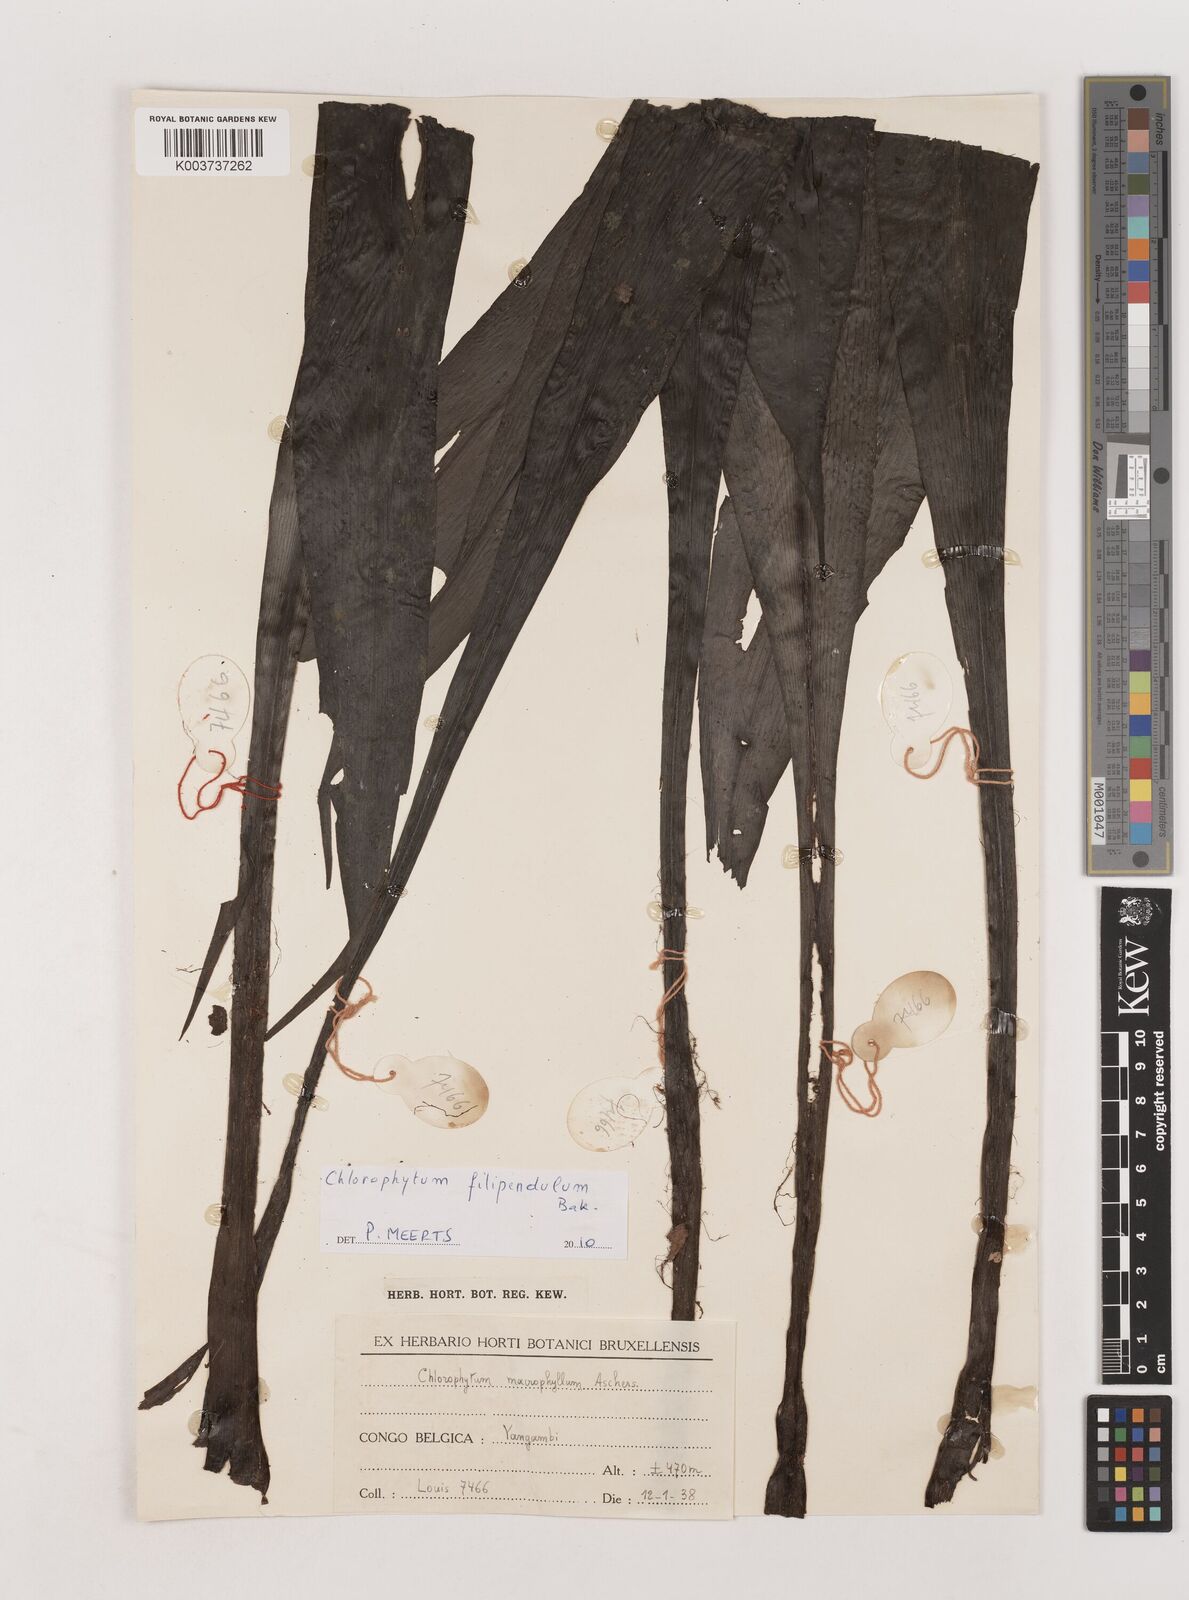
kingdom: Plantae
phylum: Tracheophyta
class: Liliopsida
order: Asparagales
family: Asparagaceae
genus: Chlorophytum
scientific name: Chlorophytum filipendulum
